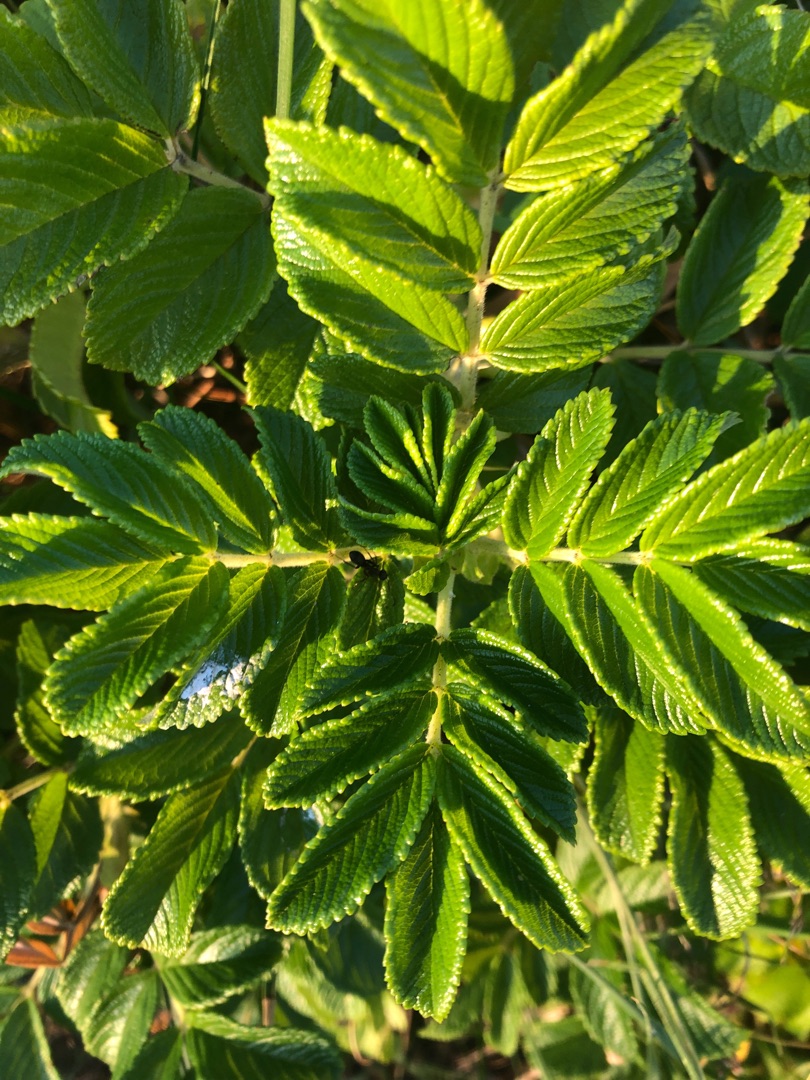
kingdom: Plantae
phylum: Tracheophyta
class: Magnoliopsida
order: Rosales
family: Rosaceae
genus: Rosa
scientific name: Rosa rugosa
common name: Rynket rose
